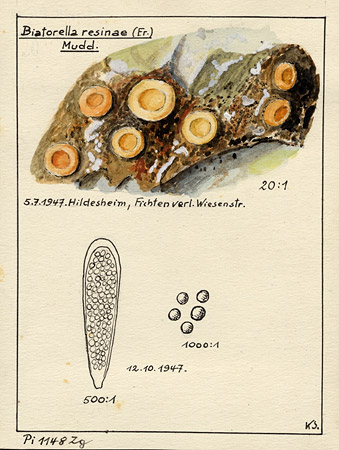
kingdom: Fungi
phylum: Ascomycota
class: Sareomycetes
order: Sareales
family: Sareaceae
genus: Sarea
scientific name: Sarea resinae
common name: Sarea lichen
